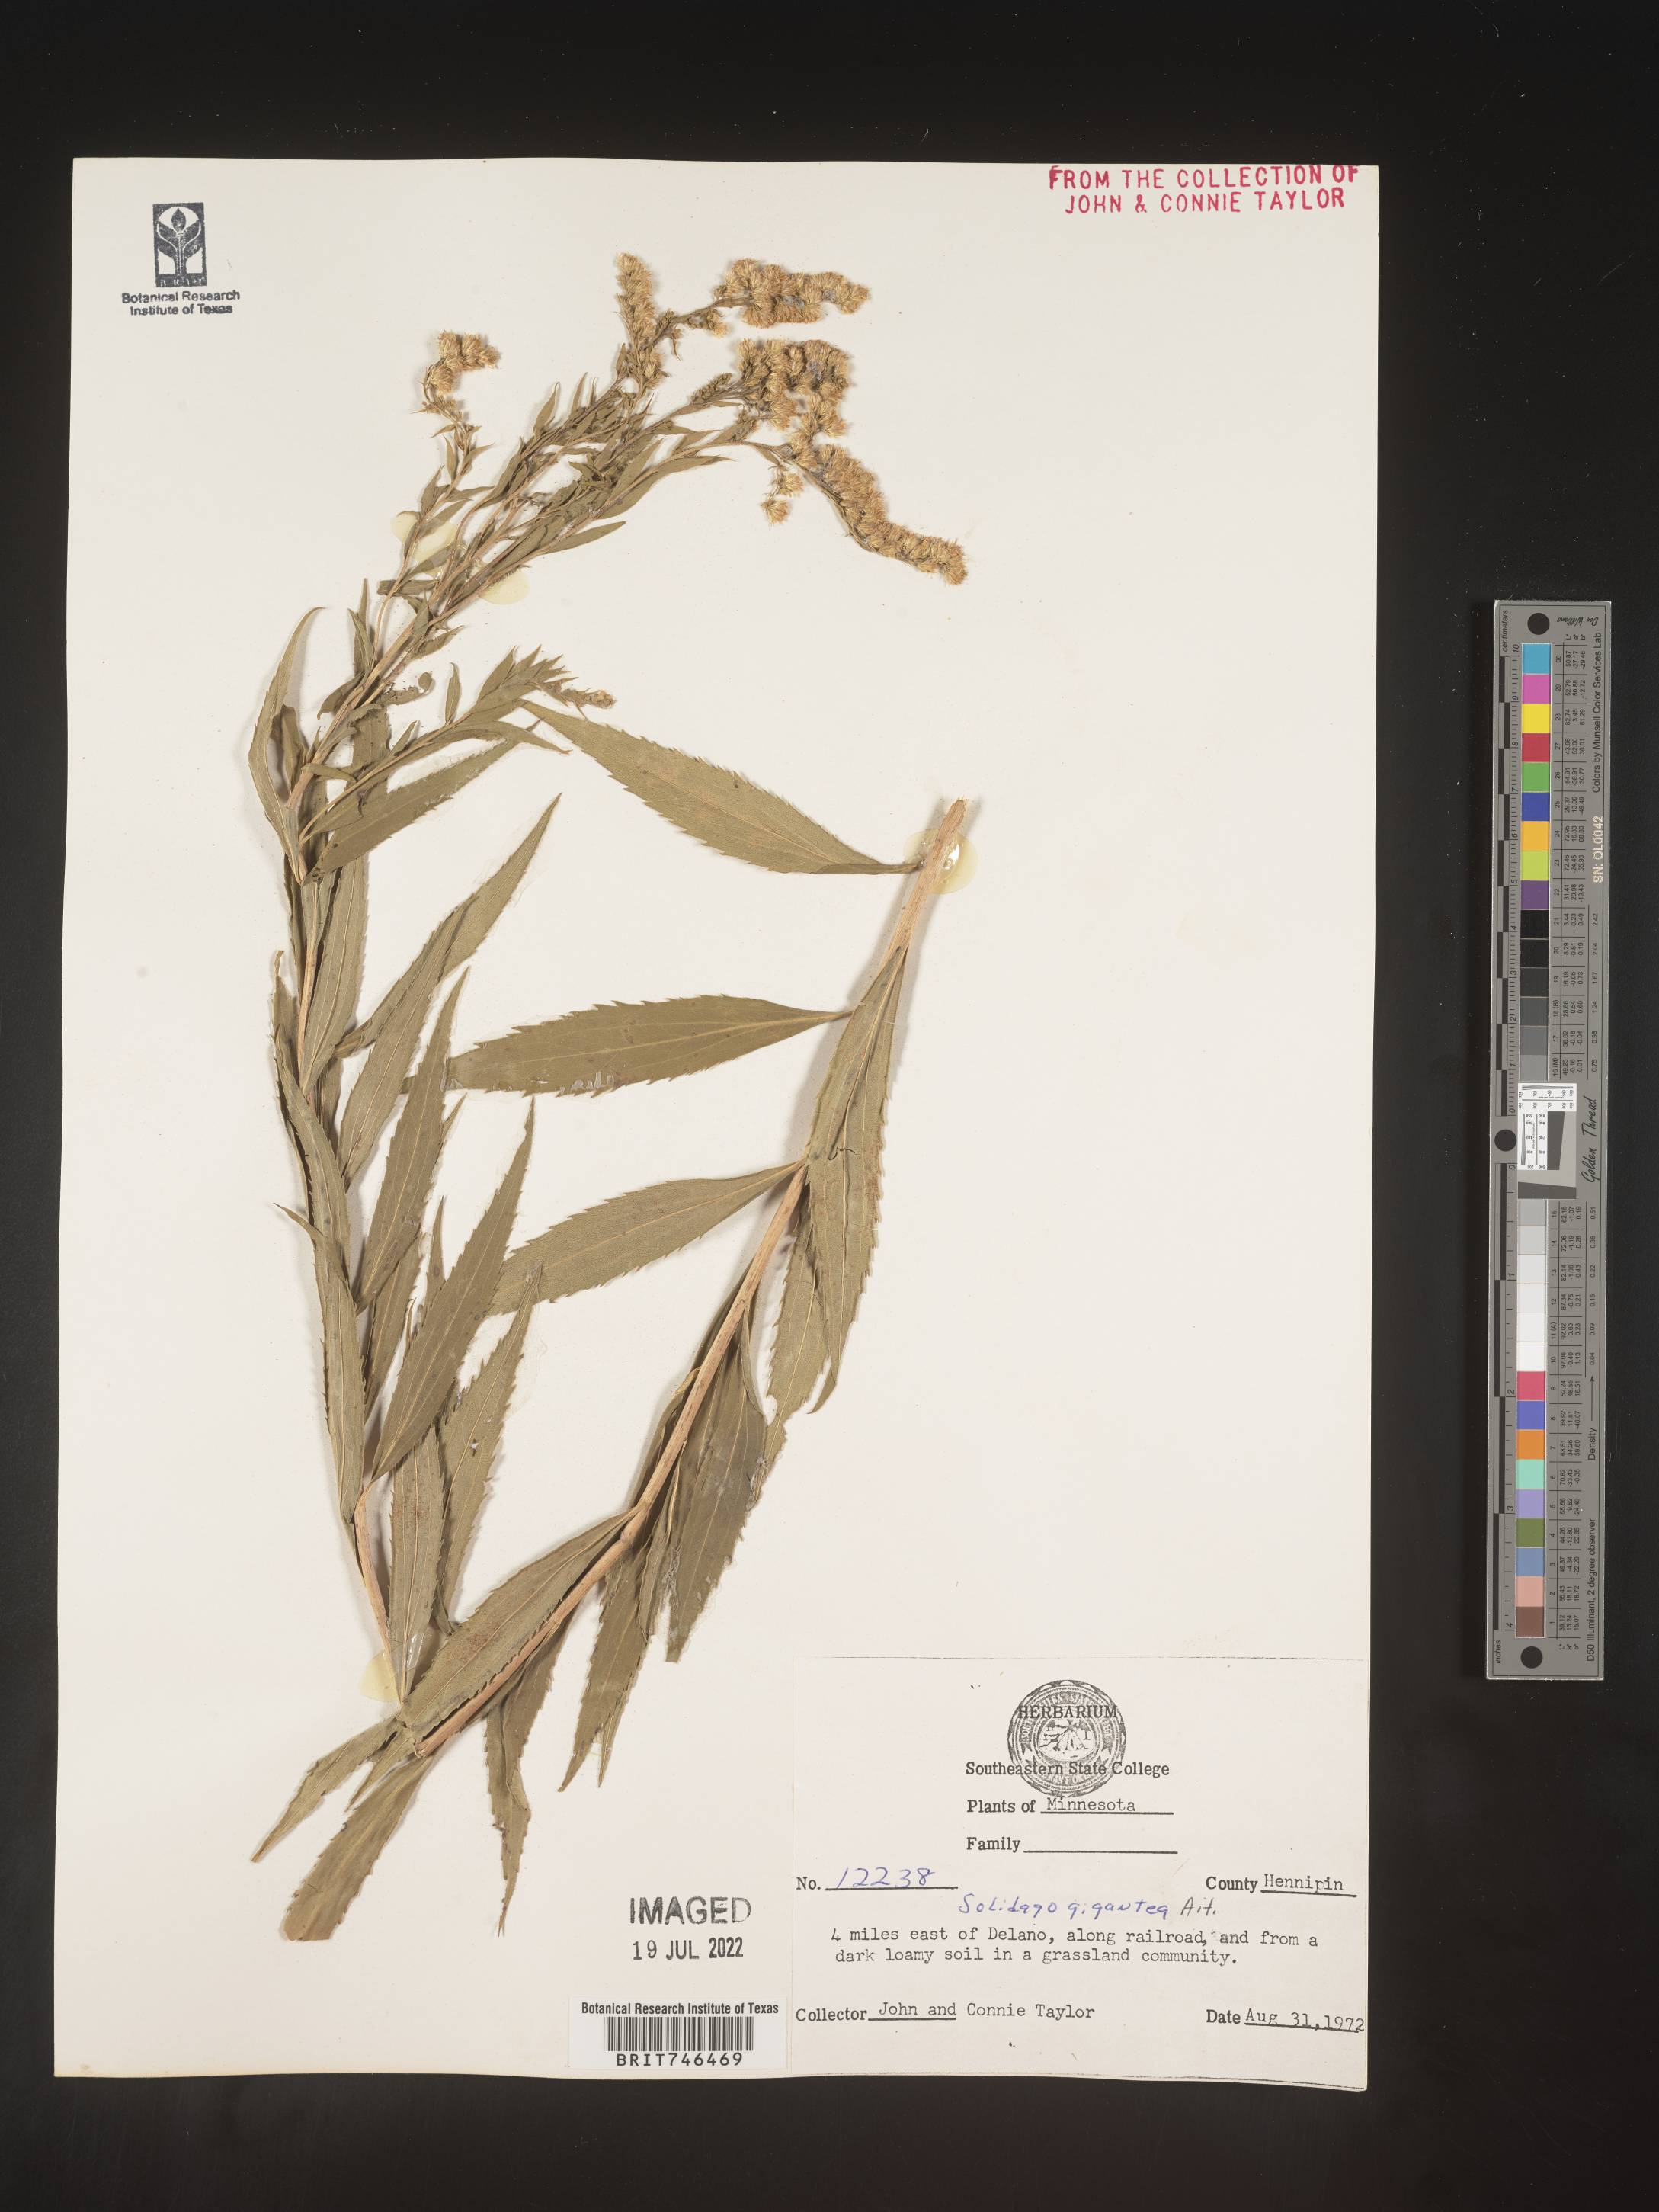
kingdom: Plantae
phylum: Tracheophyta
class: Magnoliopsida
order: Asterales
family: Asteraceae
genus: Solidago
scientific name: Solidago gigantea
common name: Giant goldenrod
